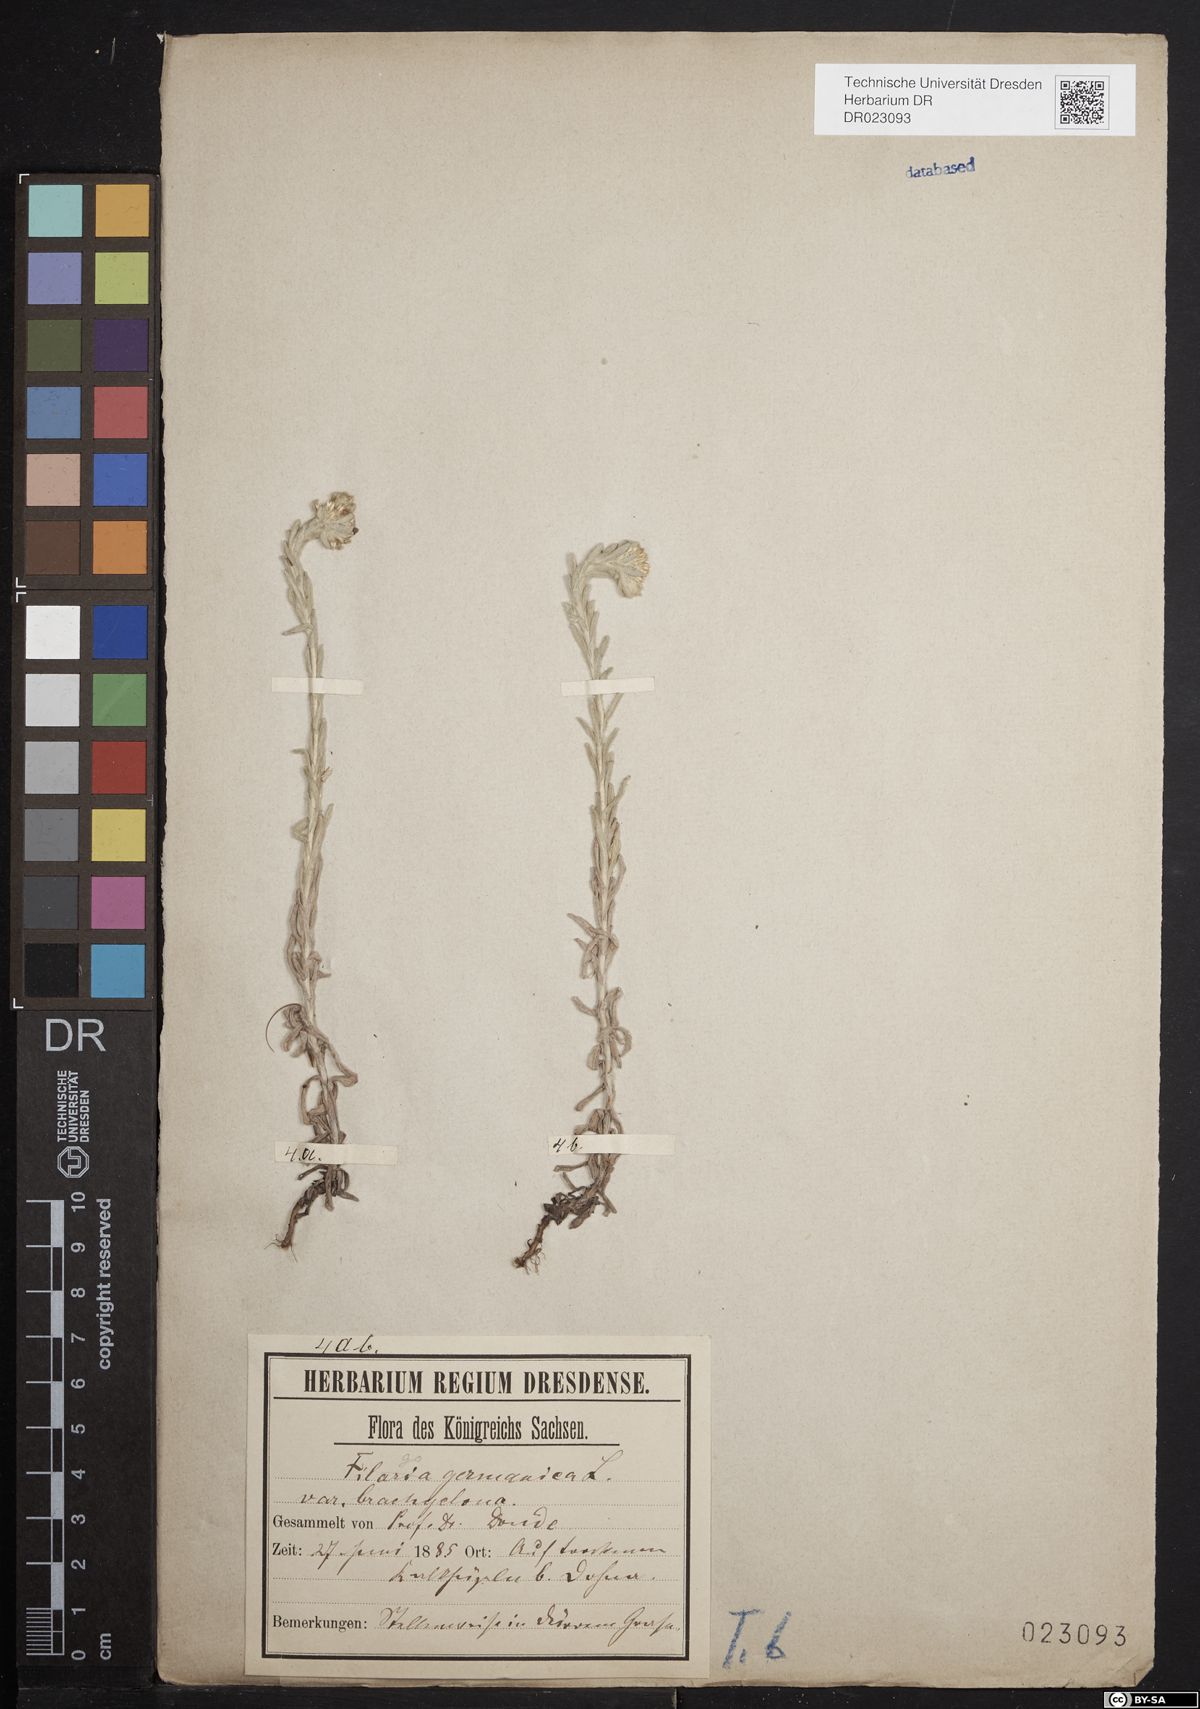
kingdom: Plantae
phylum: Tracheophyta
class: Magnoliopsida
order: Asterales
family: Asteraceae
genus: Filago
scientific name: Filago germanica
